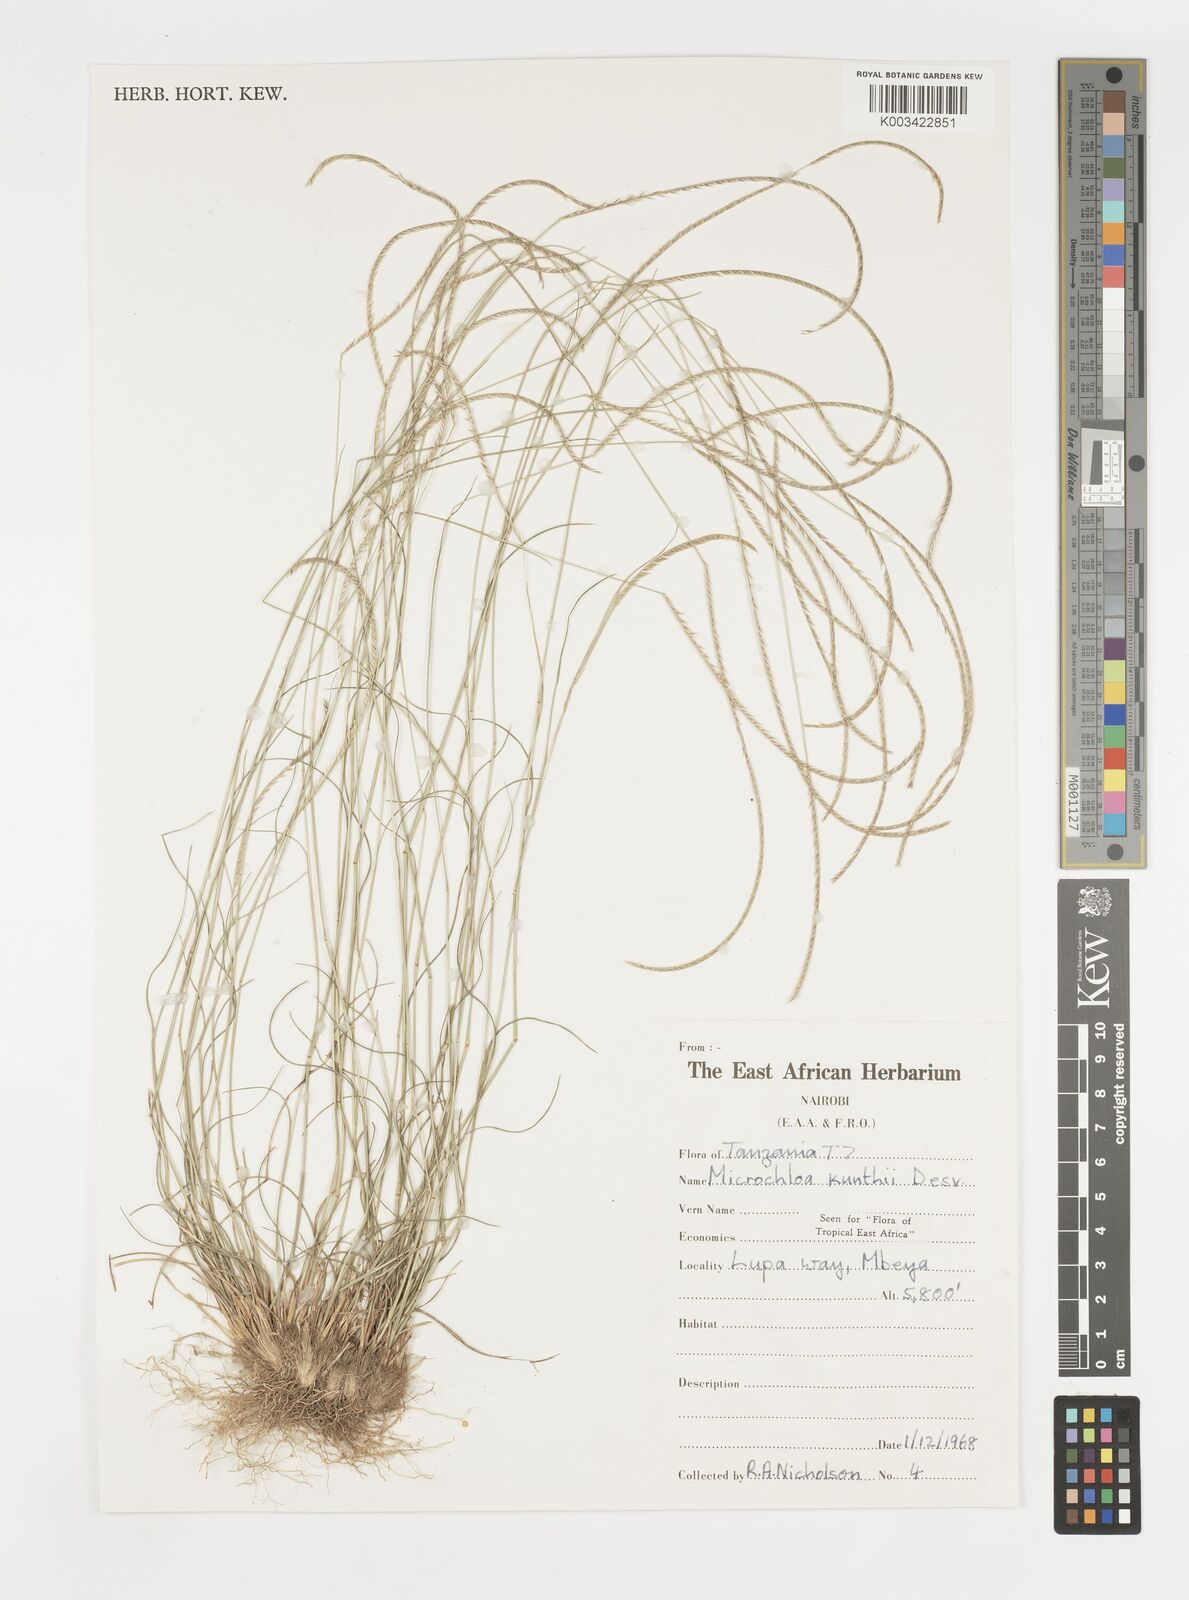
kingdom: Plantae
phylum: Tracheophyta
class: Liliopsida
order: Poales
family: Poaceae
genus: Microchloa
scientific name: Microchloa kunthii
